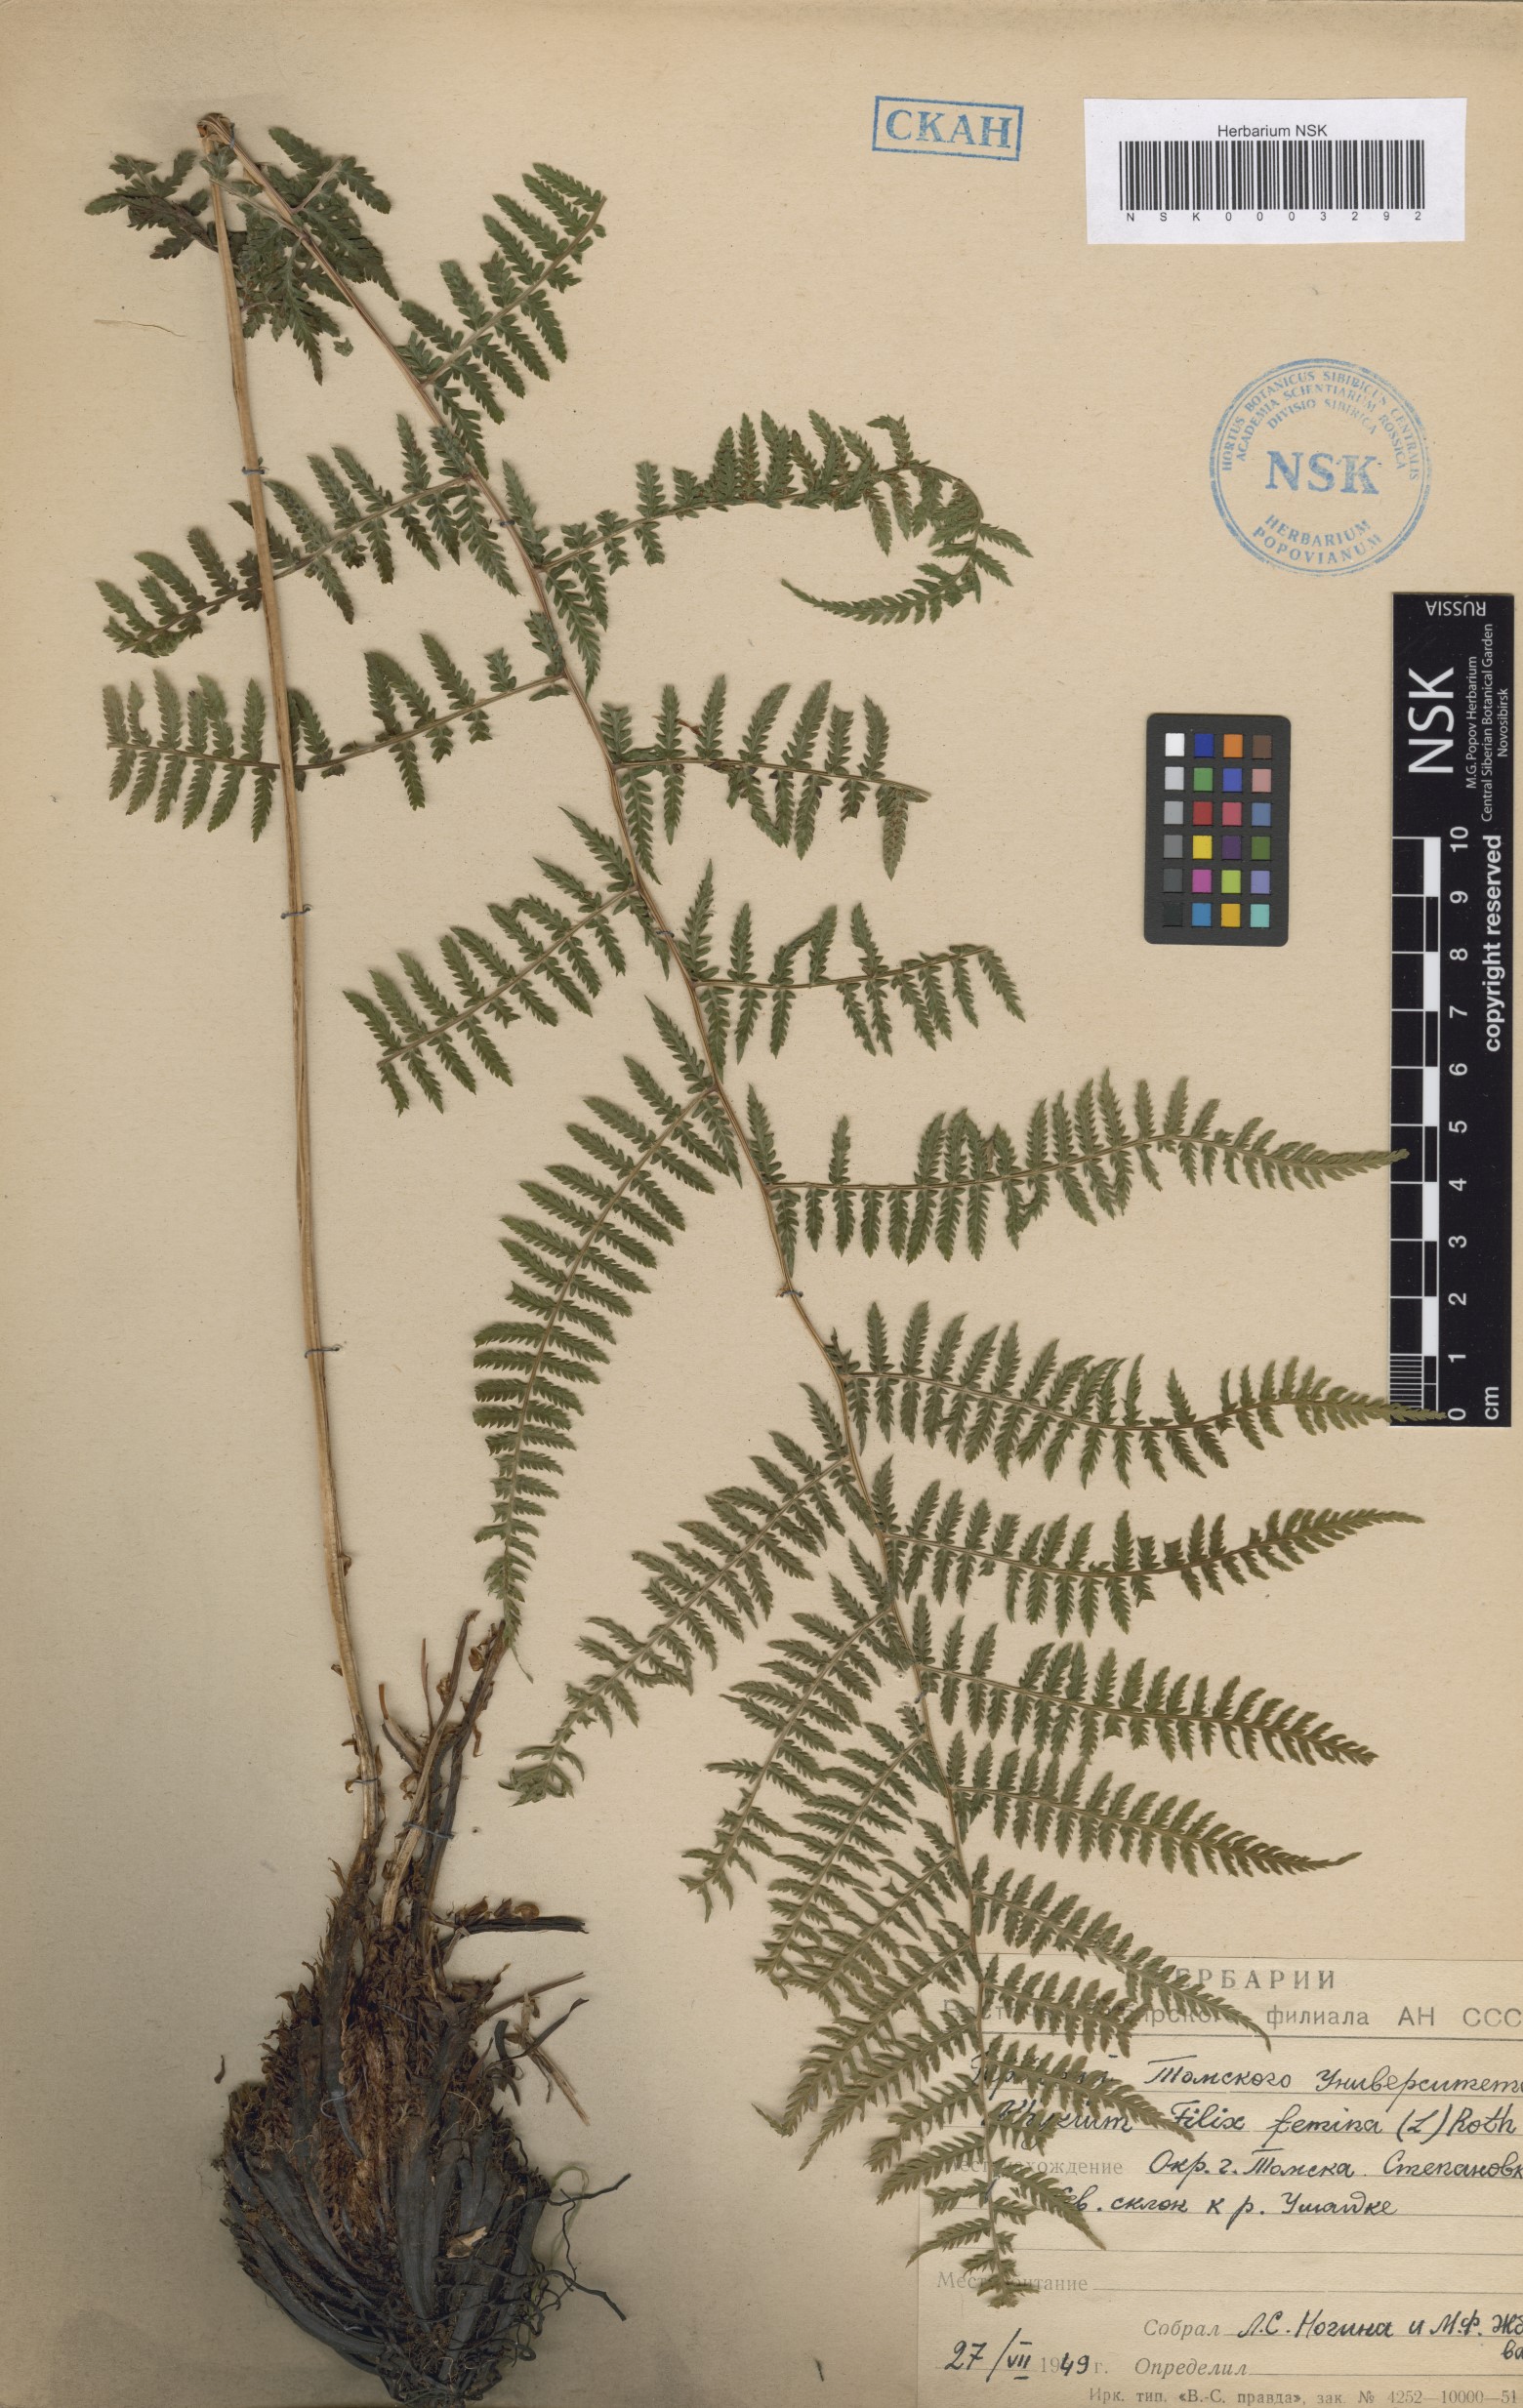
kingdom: Plantae
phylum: Tracheophyta
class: Polypodiopsida
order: Polypodiales
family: Athyriaceae
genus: Athyrium
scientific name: Athyrium filix-femina
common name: Lady fern
